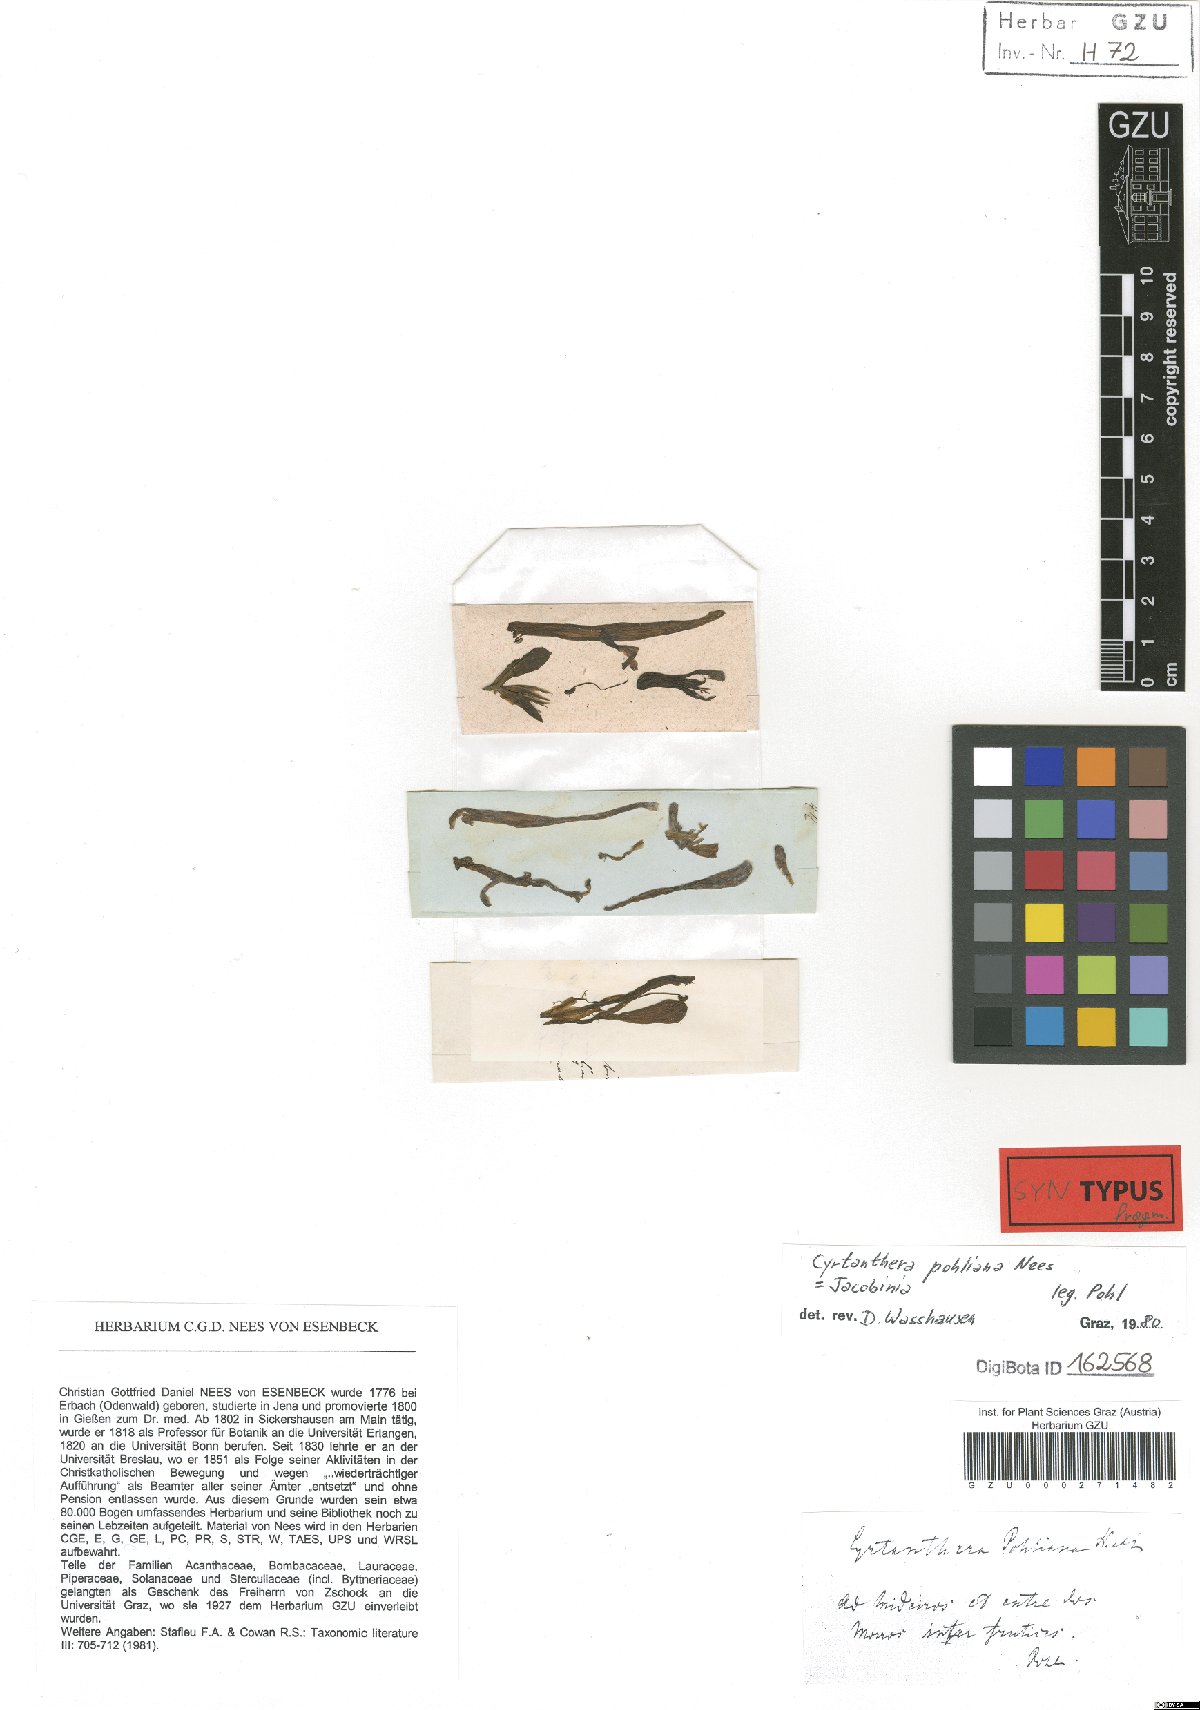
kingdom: Plantae
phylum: Tracheophyta
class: Magnoliopsida
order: Lamiales
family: Acanthaceae
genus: Justicia
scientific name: Justicia carnea
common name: Brazilian-plume
